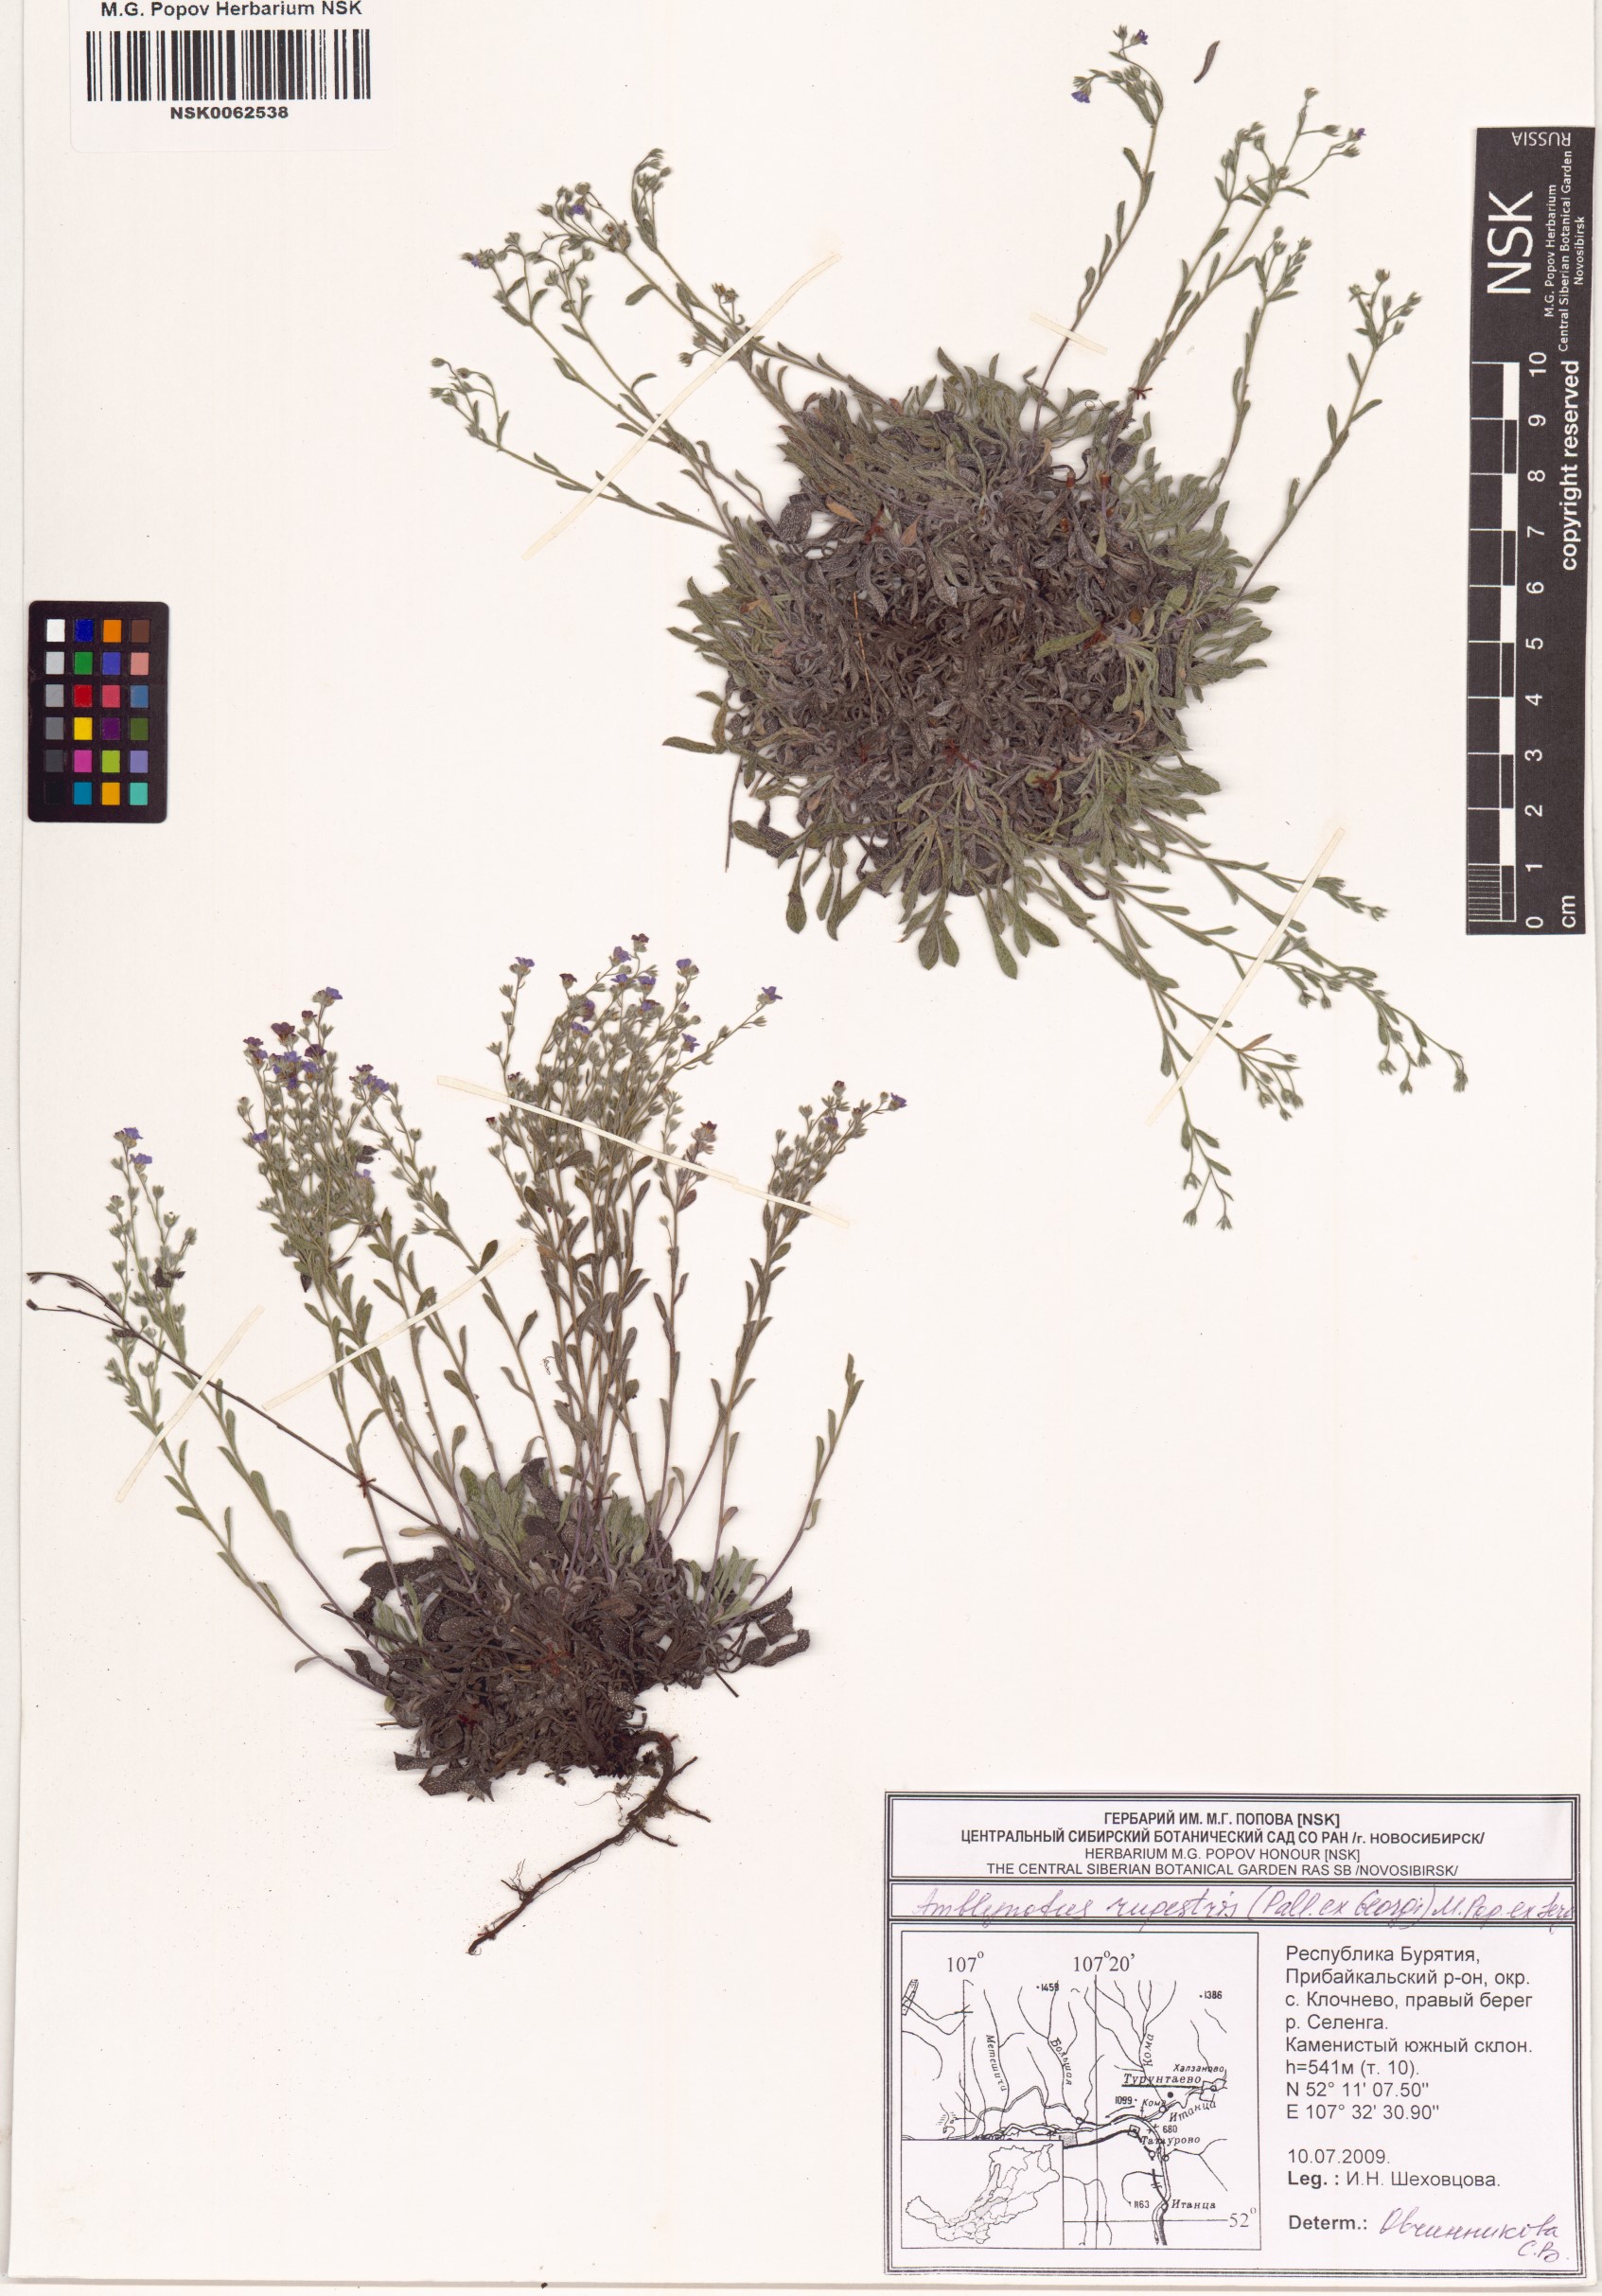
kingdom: Plantae
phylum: Tracheophyta
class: Magnoliopsida
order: Boraginales
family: Boraginaceae
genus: Eritrichium
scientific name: Eritrichium rupestre
